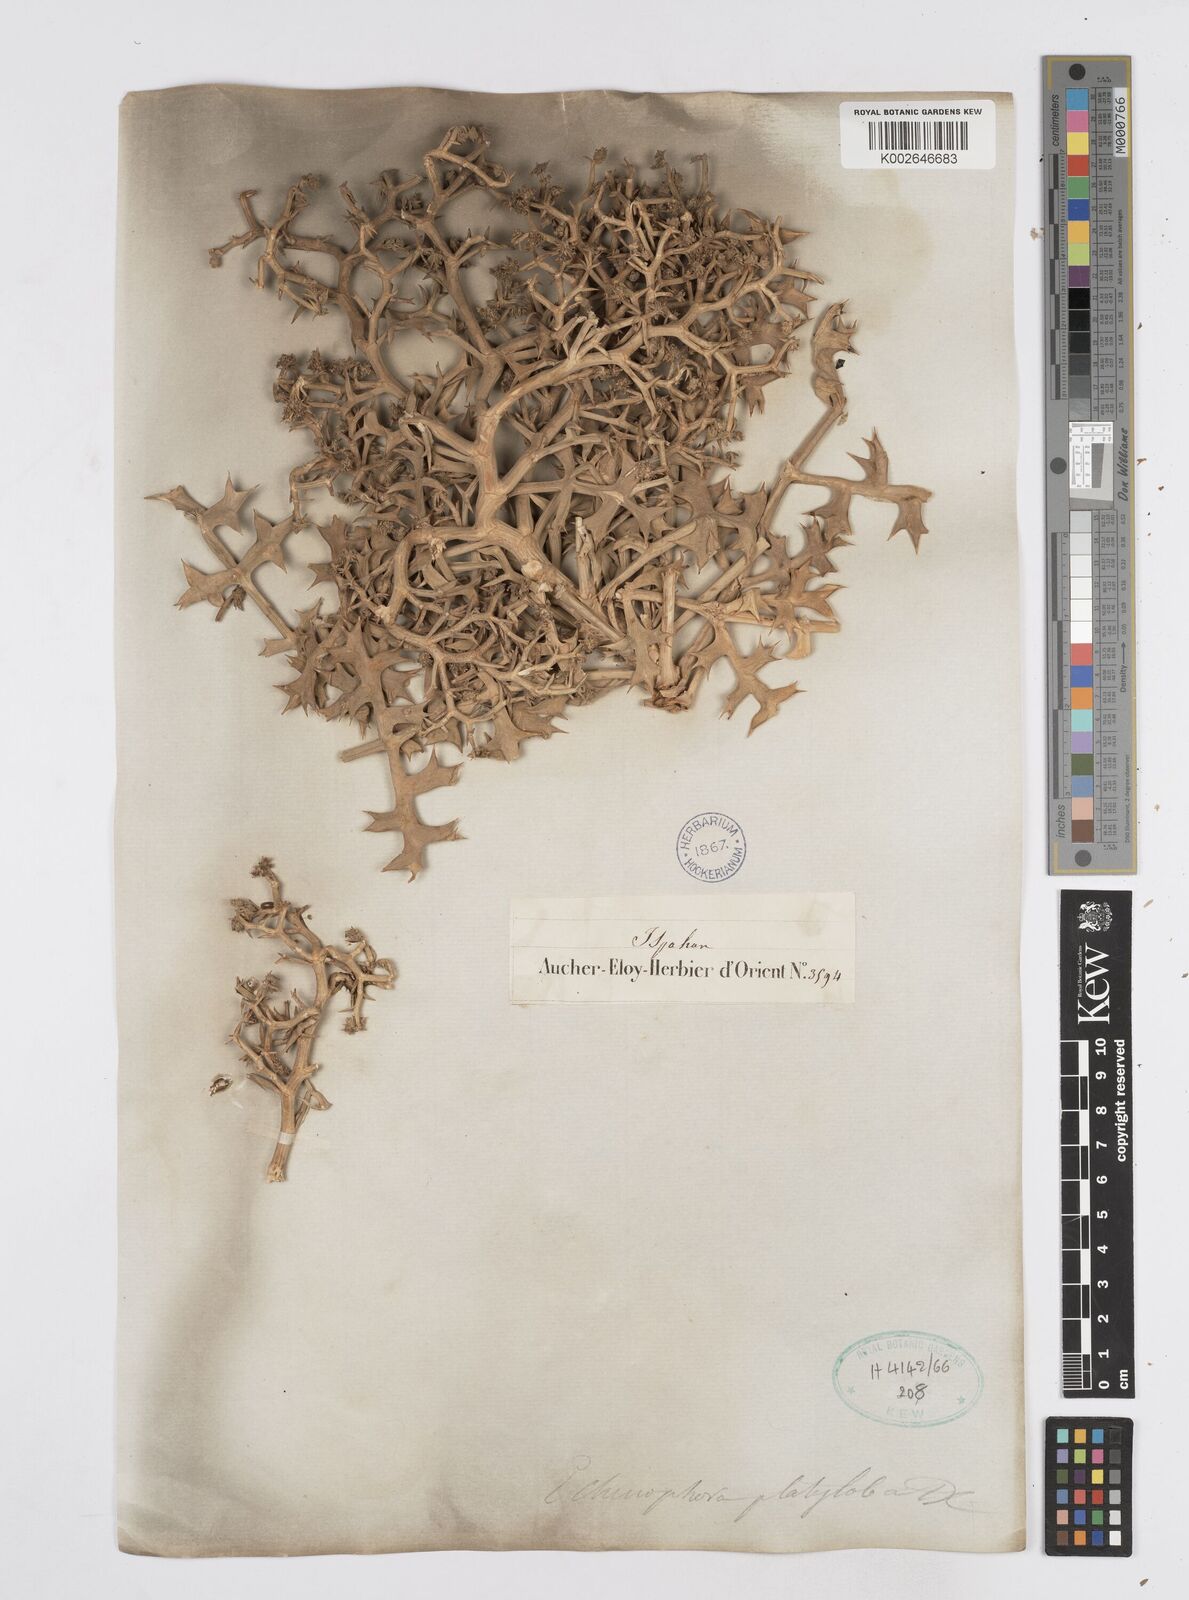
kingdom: Plantae
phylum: Tracheophyta
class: Magnoliopsida
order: Apiales
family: Apiaceae
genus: Echinophora
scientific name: Echinophora platyloba
